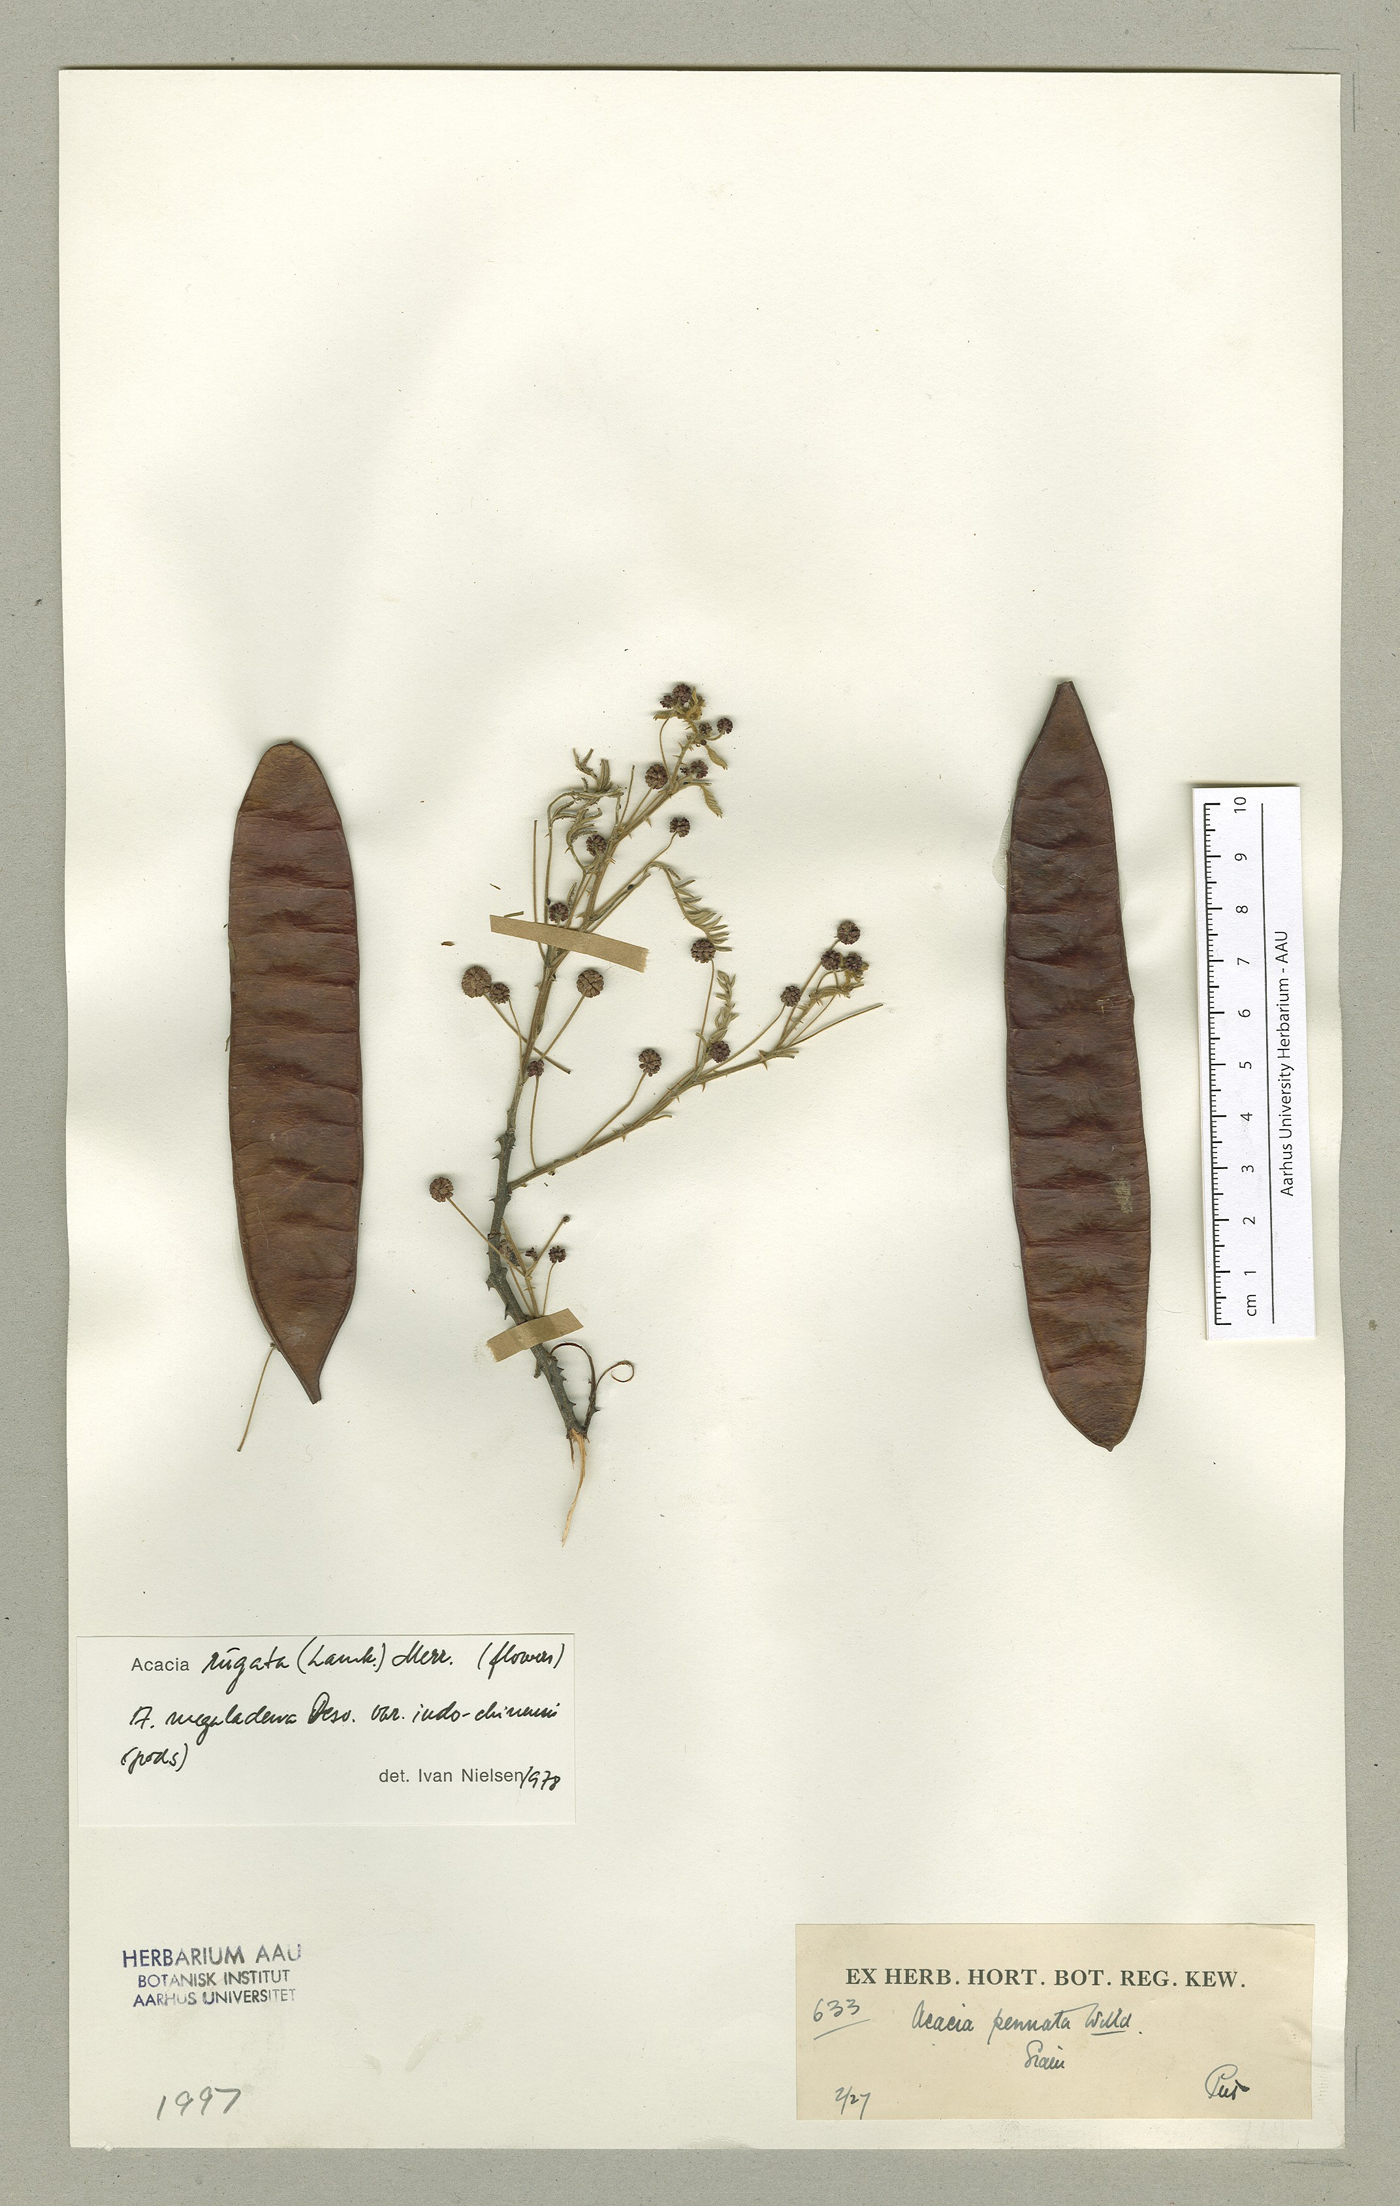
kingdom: Plantae
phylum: Tracheophyta
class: Magnoliopsida
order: Fabales
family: Fabaceae
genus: Senegalia
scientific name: Senegalia rugata
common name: Soap-pod
